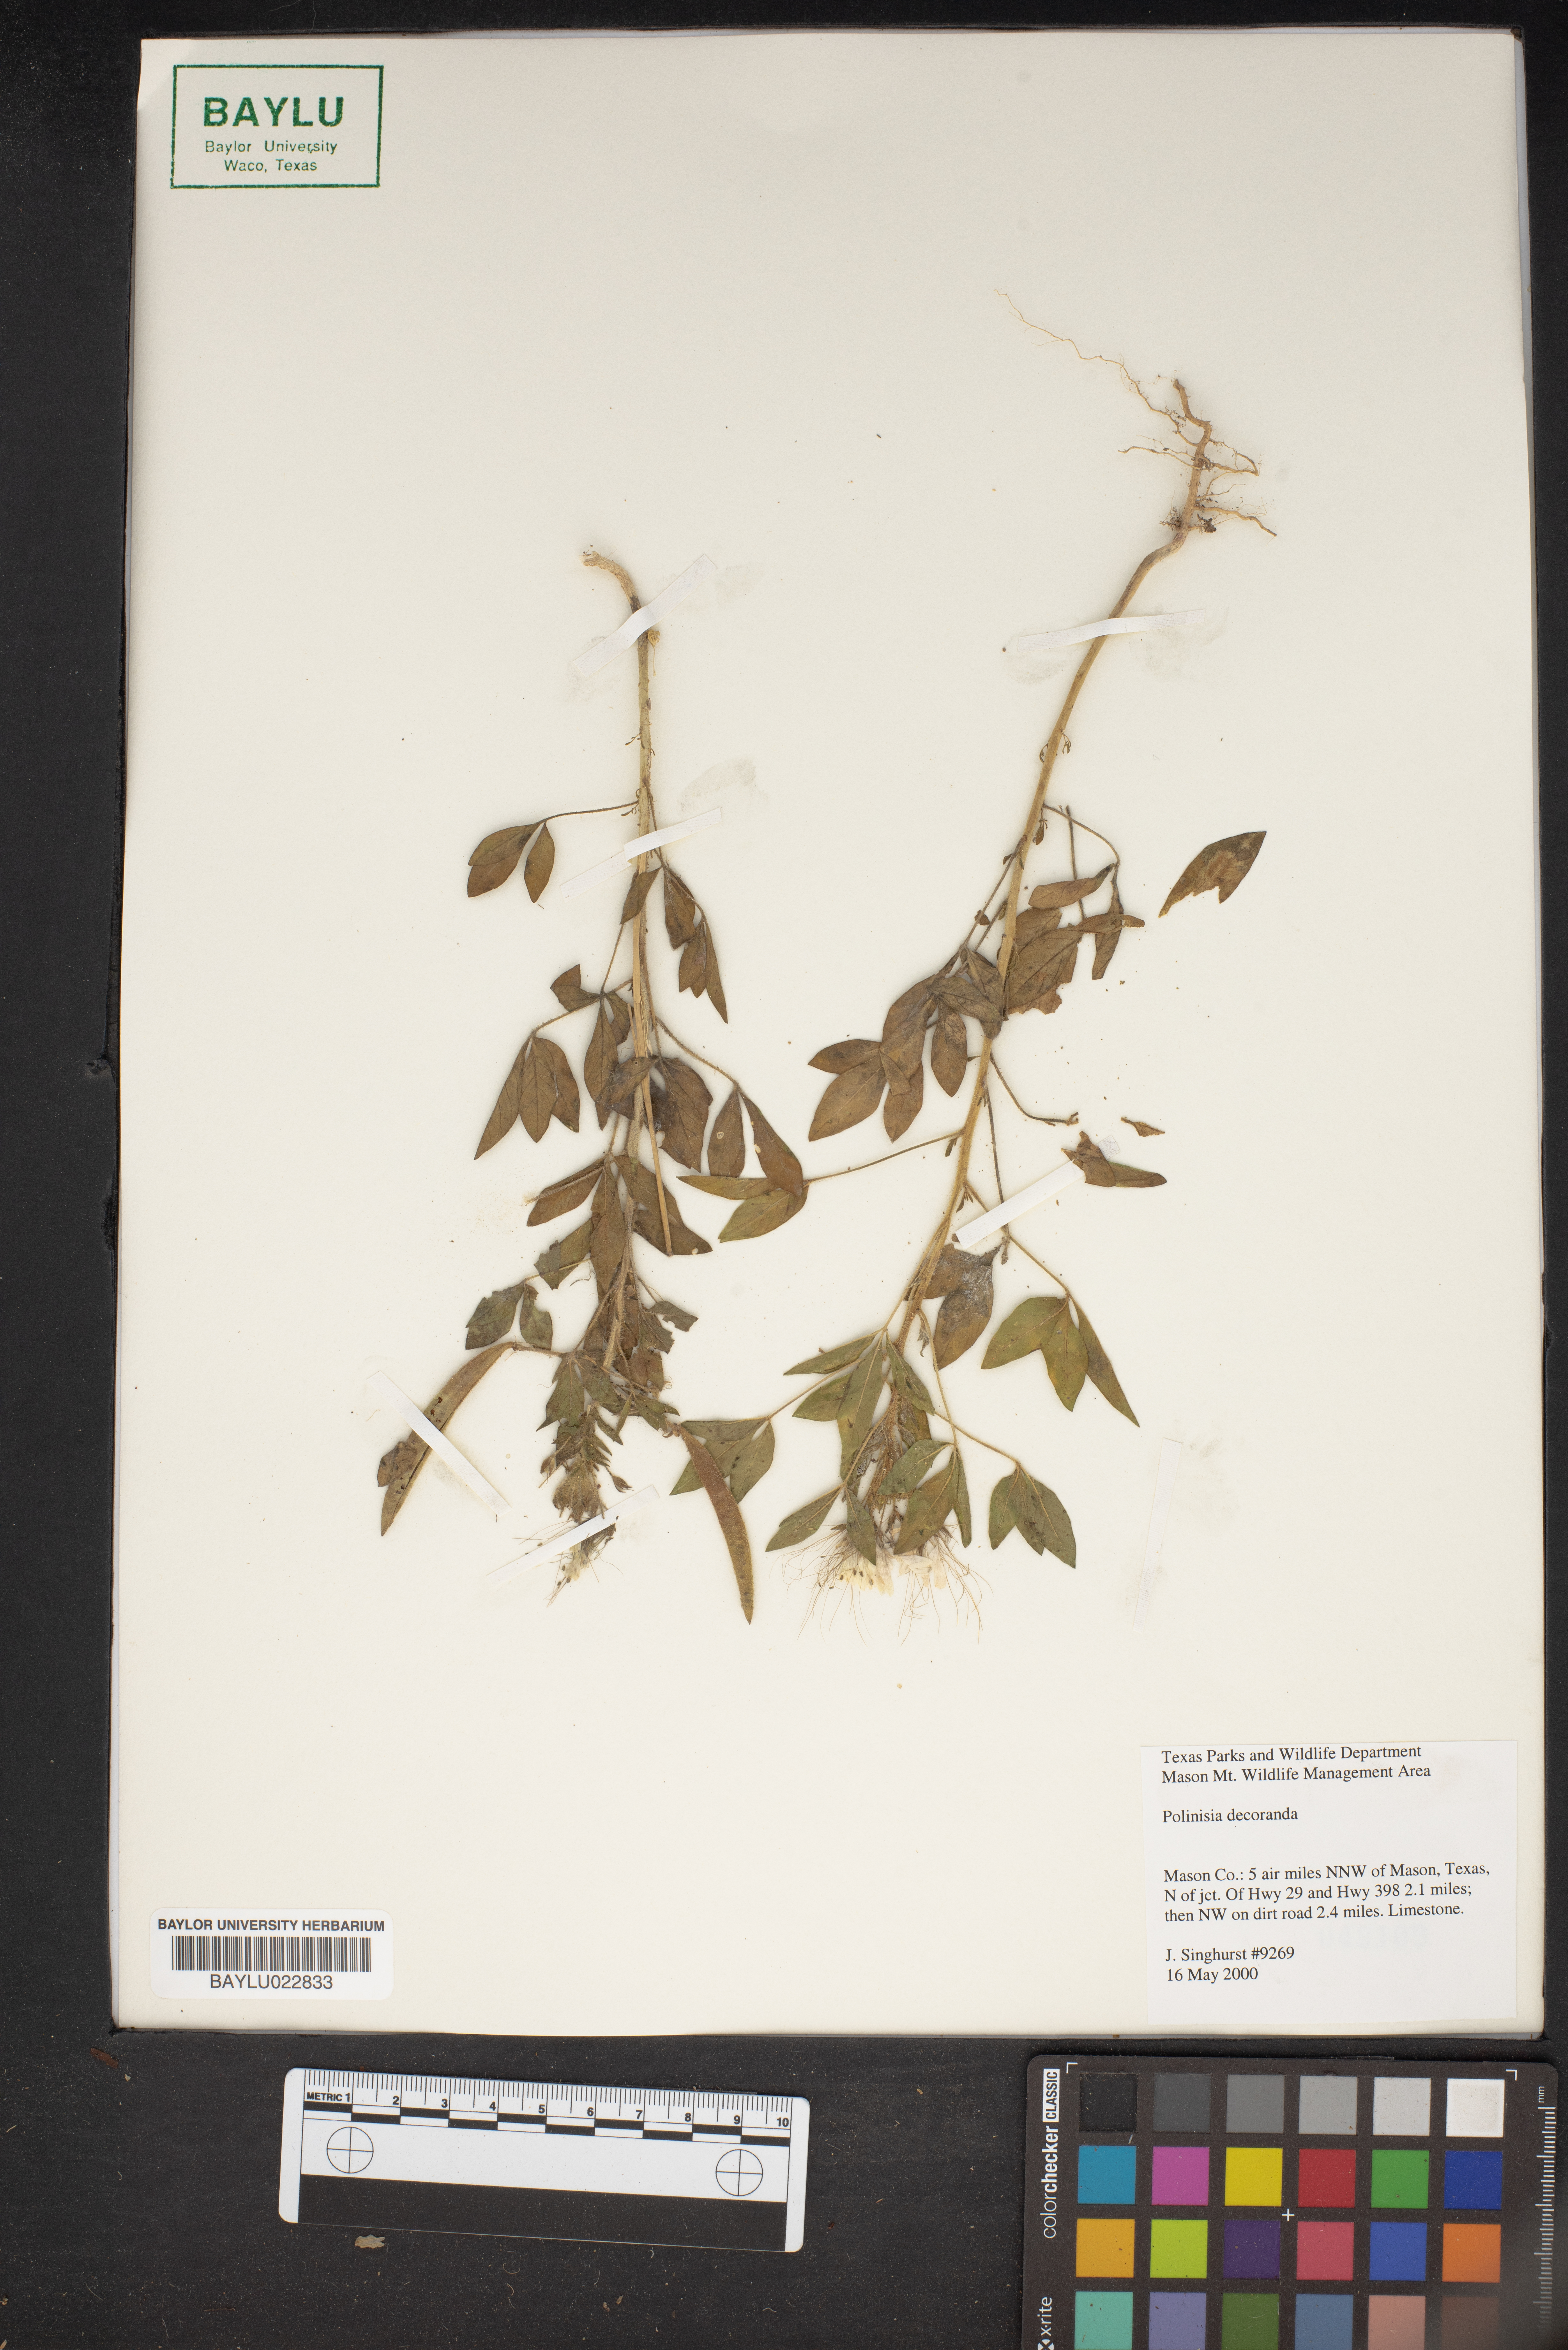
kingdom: Plantae
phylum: Tracheophyta
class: Magnoliopsida
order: Brassicales
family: Cleomaceae
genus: Polanisia
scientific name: Polanisia dodecandra
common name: Clammyweed
